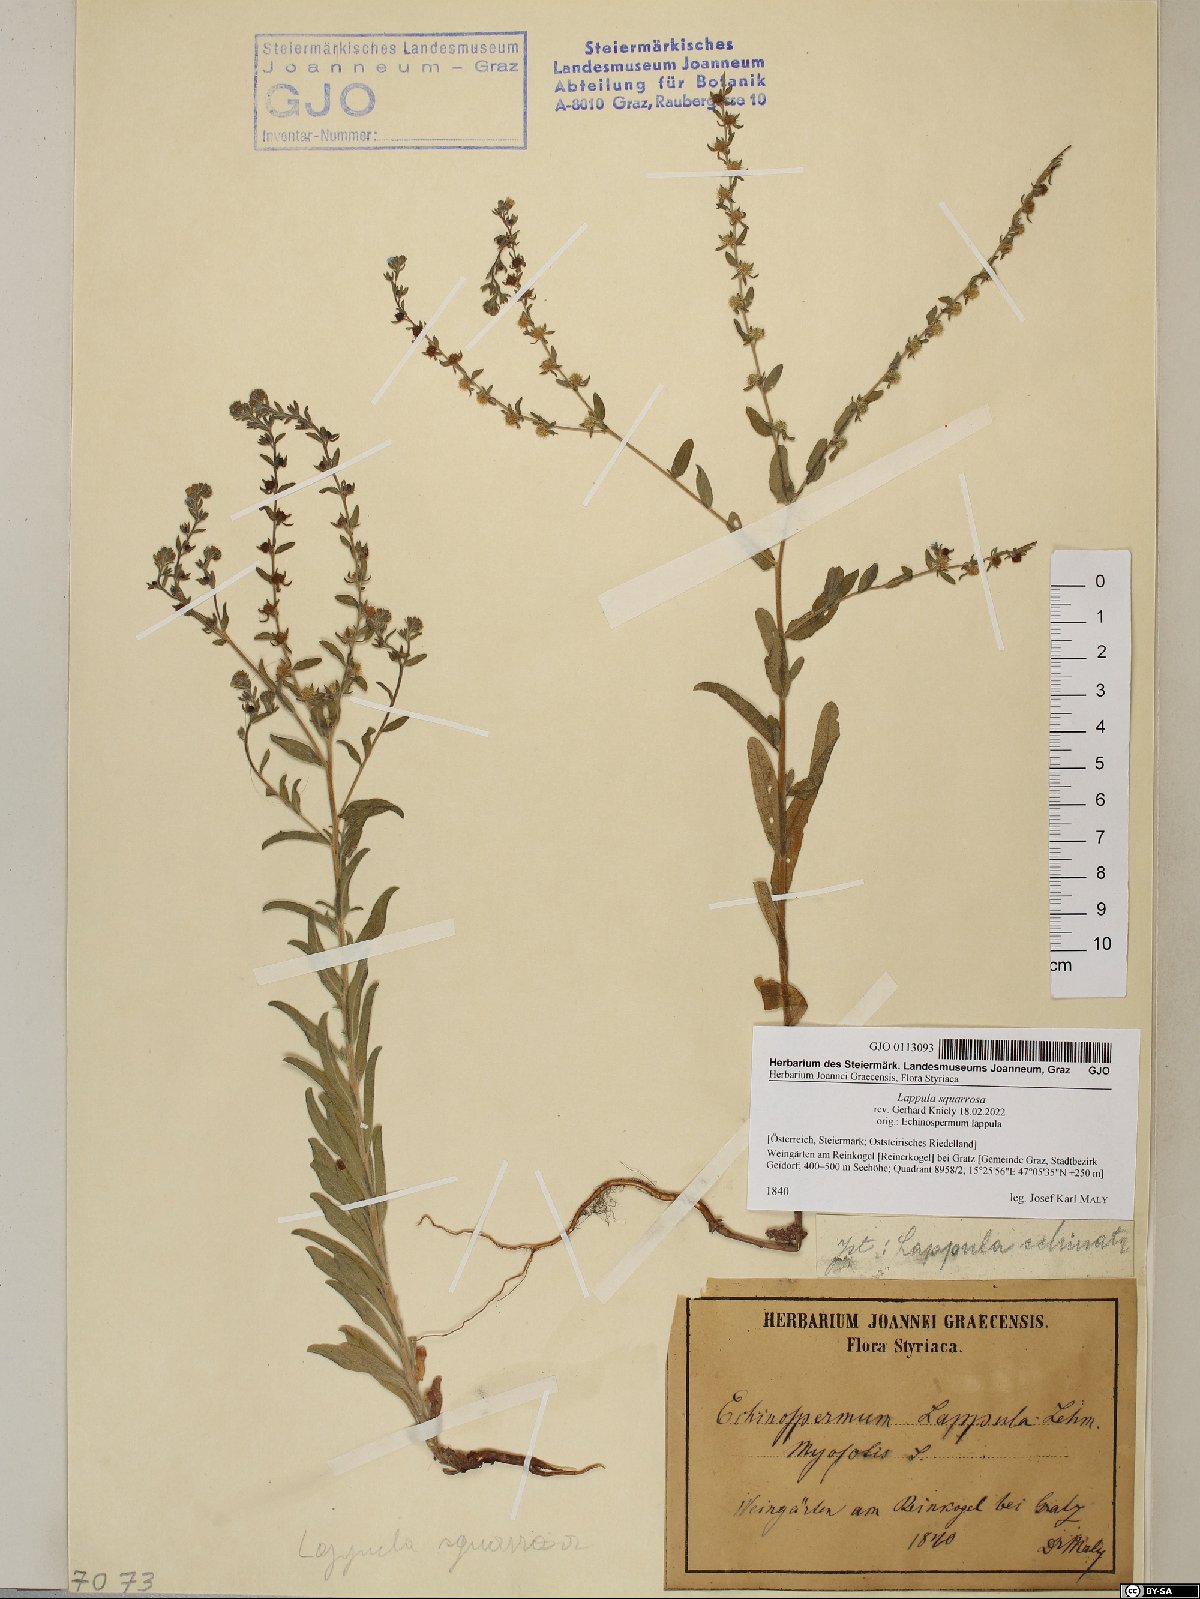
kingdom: Plantae
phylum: Tracheophyta
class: Magnoliopsida
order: Boraginales
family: Boraginaceae
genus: Lappula
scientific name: Lappula squarrosa
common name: European stickseed
